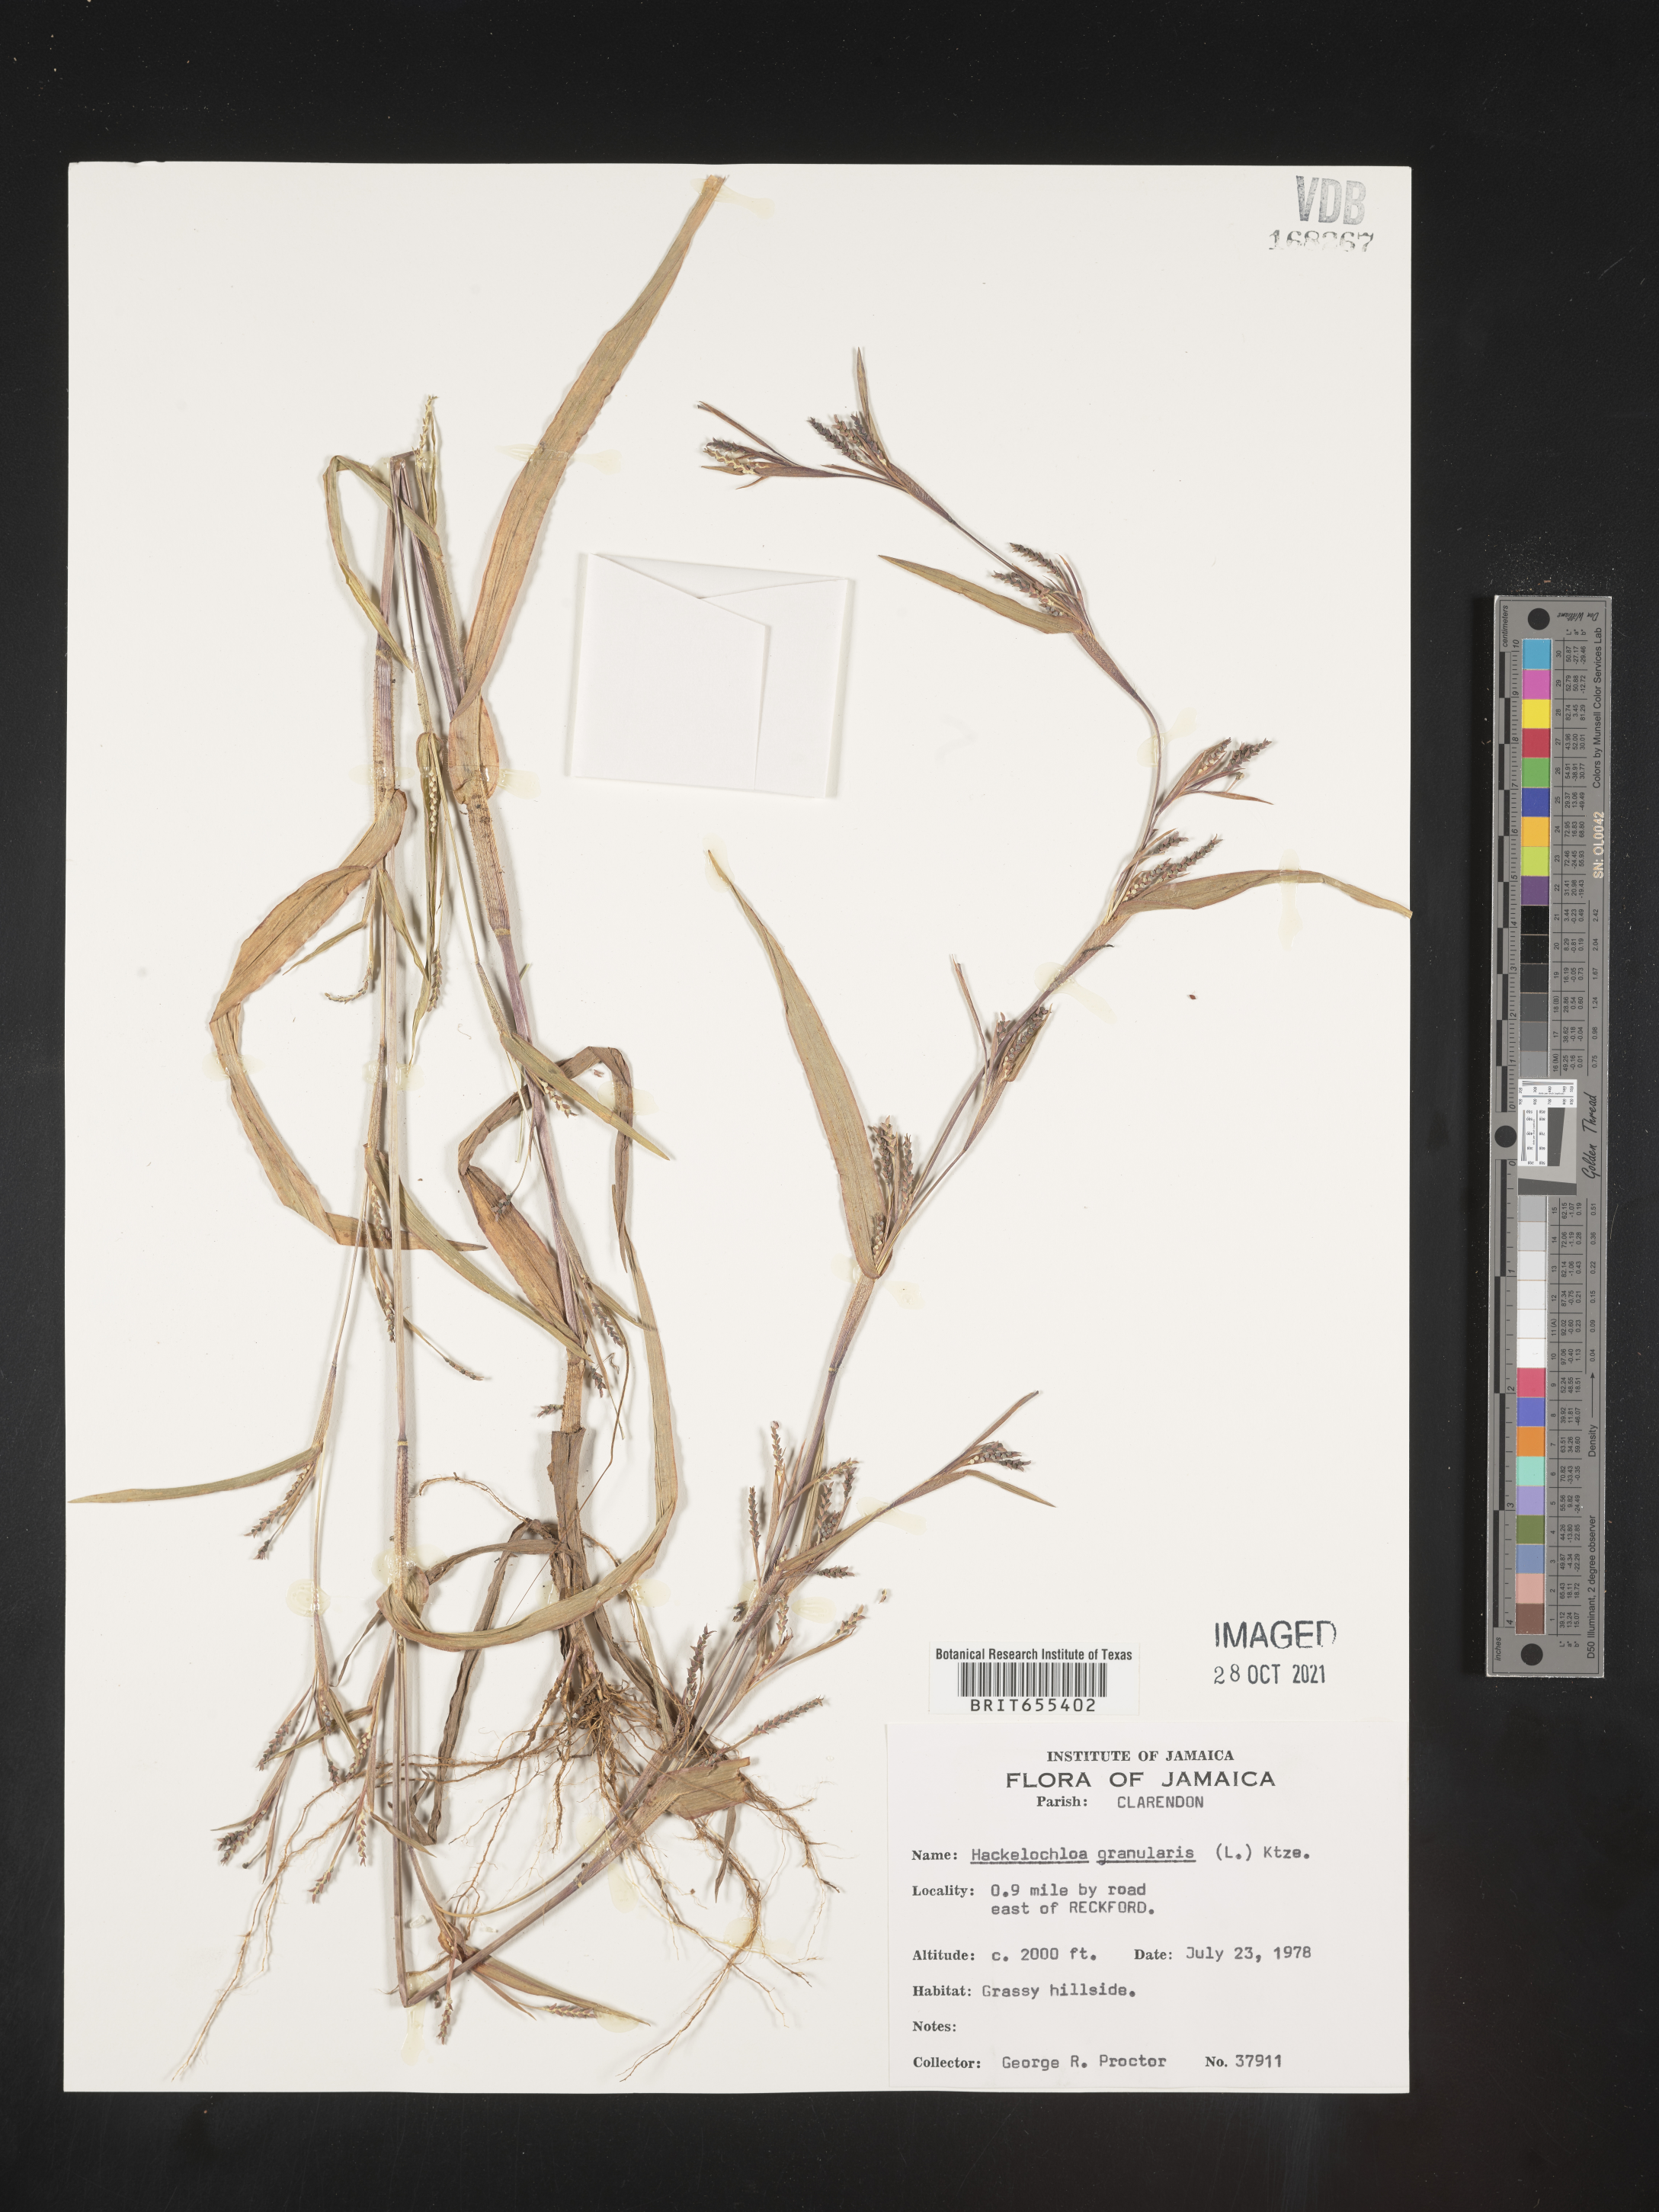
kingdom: Plantae
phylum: Tracheophyta
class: Liliopsida
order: Poales
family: Poaceae
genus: Hackelochloa
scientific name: Hackelochloa
